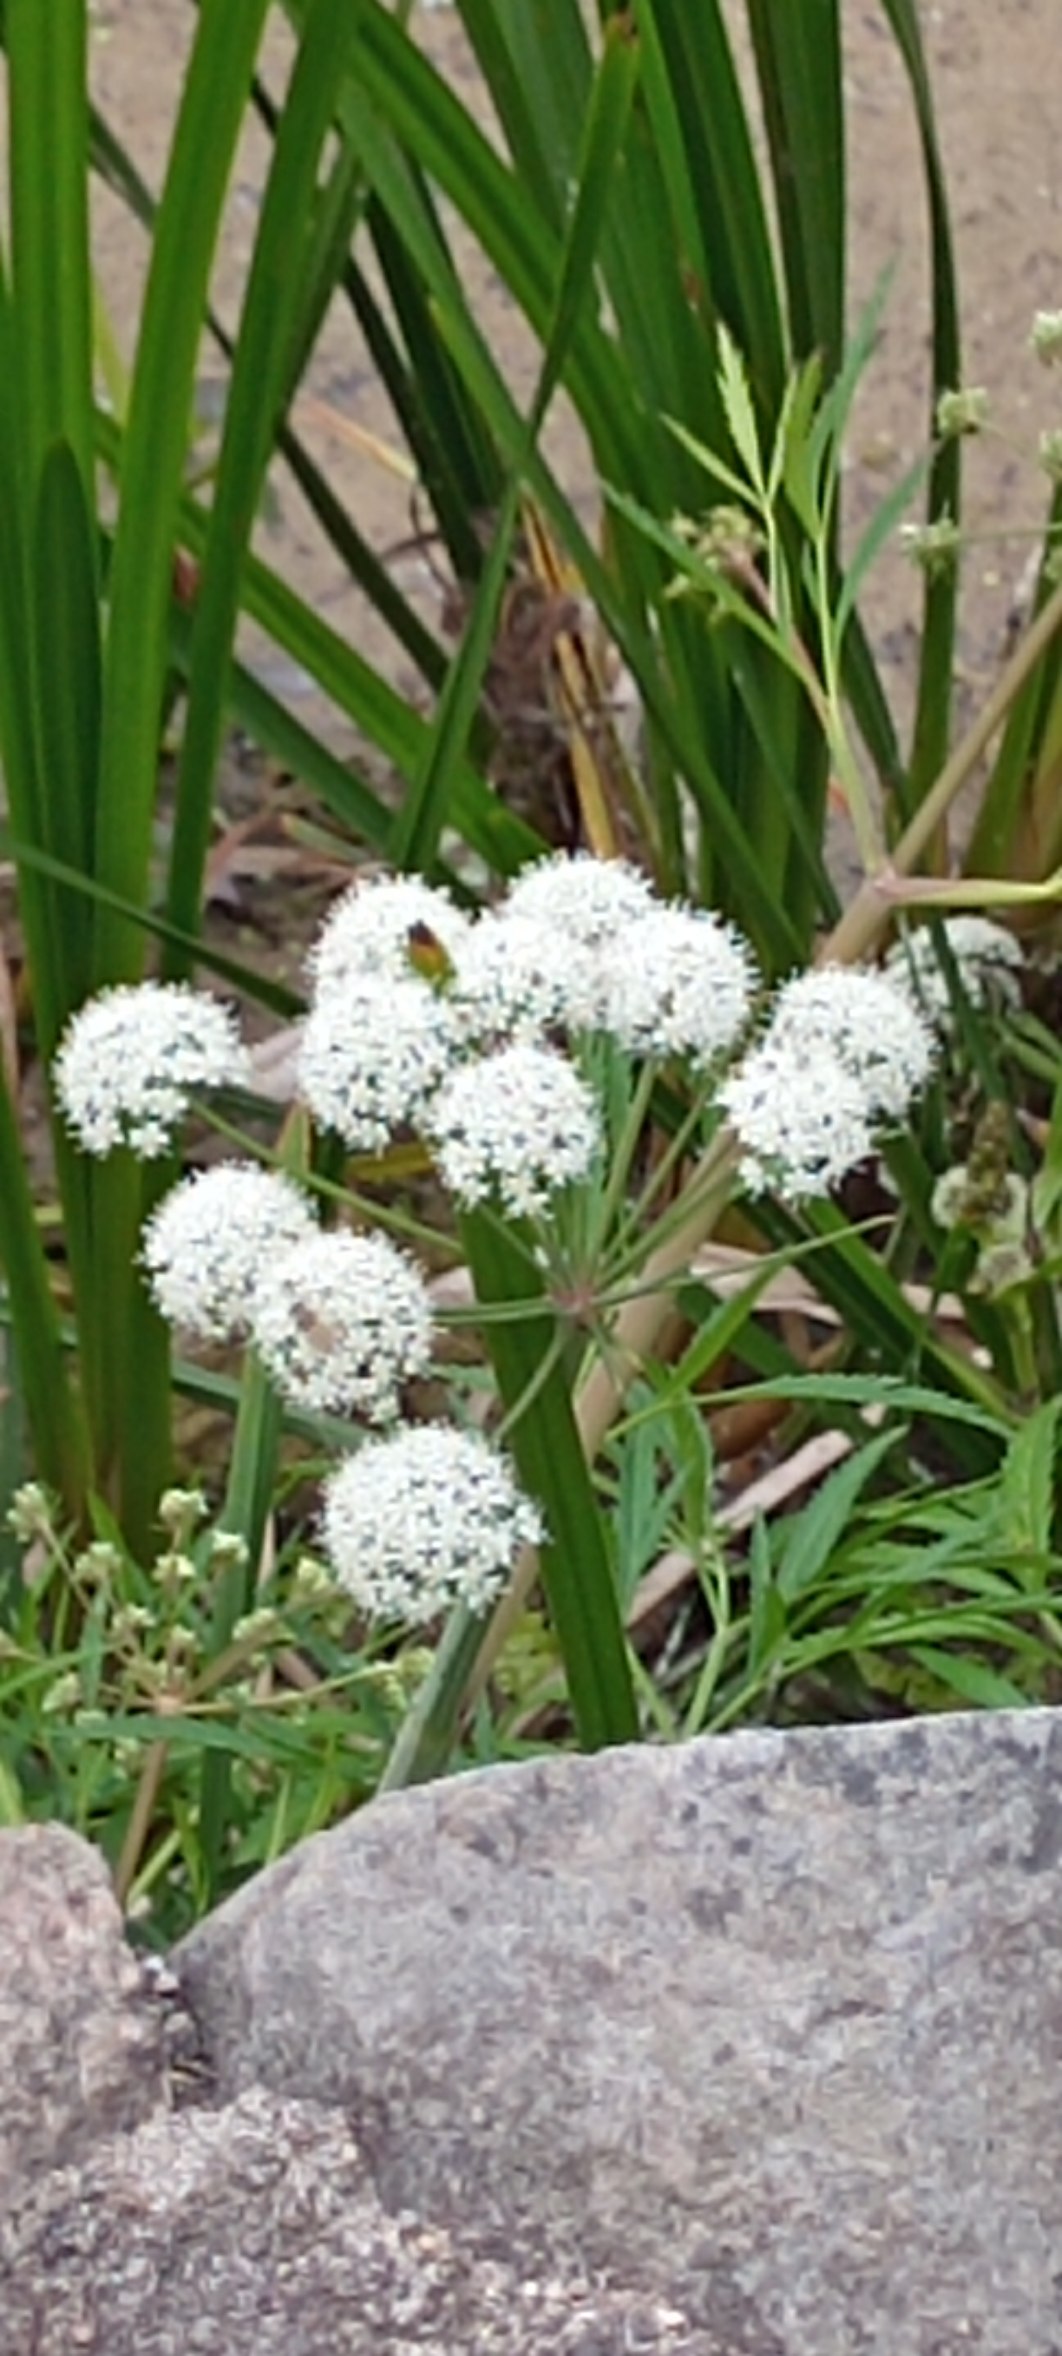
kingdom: Plantae
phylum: Tracheophyta
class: Magnoliopsida
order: Apiales
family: Apiaceae
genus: Cicuta
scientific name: Cicuta virosa
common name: Gifttyde
